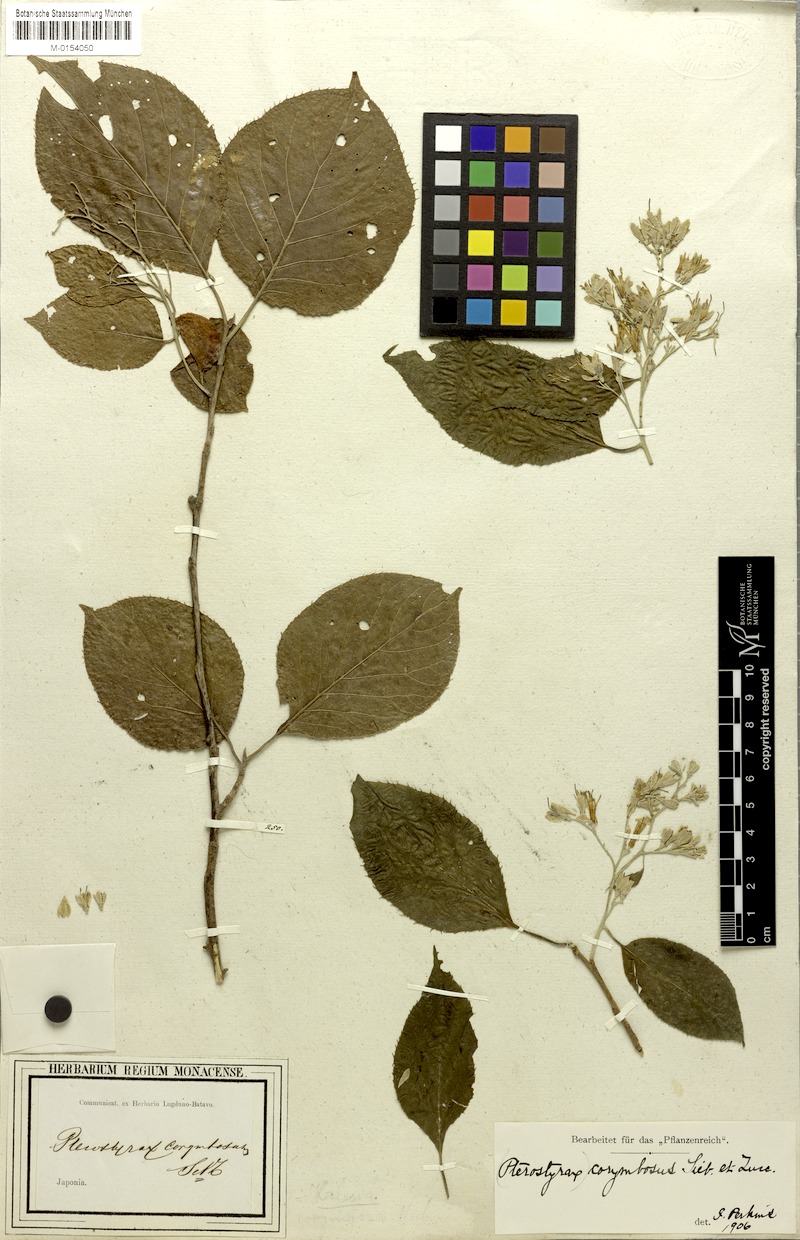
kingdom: Plantae
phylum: Tracheophyta
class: Magnoliopsida
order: Ericales
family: Styracaceae
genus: Pterostyrax
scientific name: Pterostyrax corymbosus
